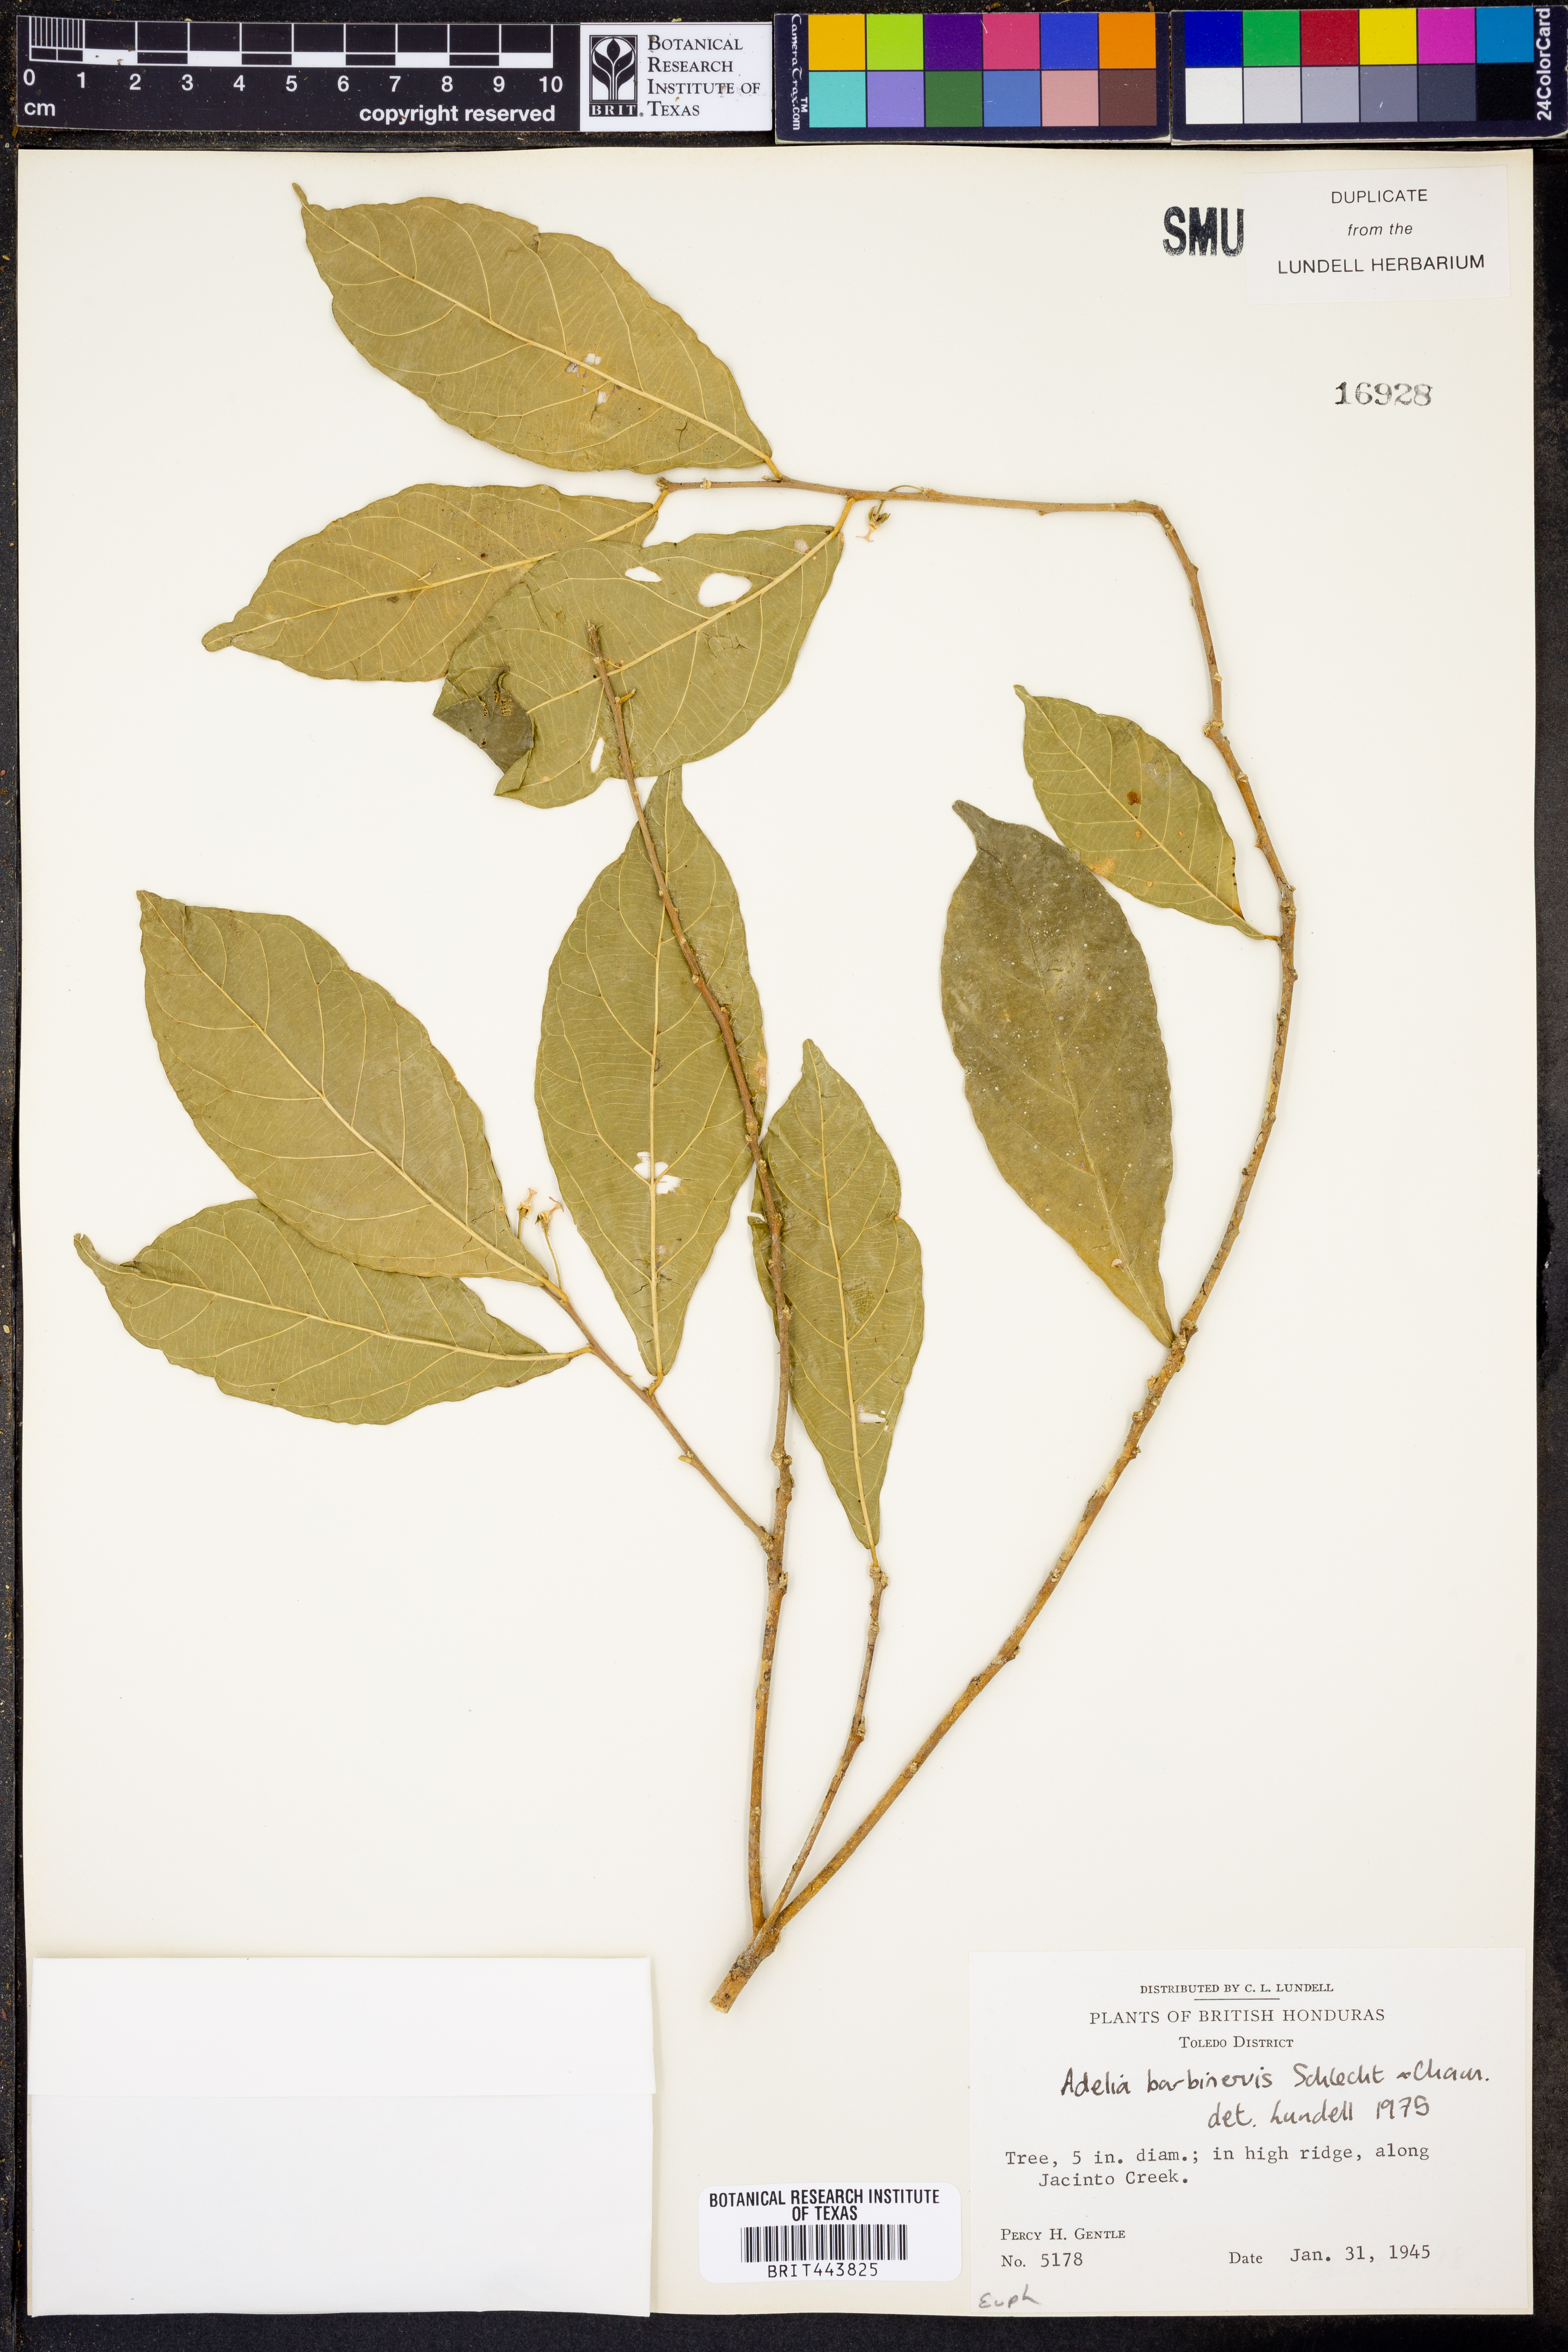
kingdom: Plantae
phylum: Tracheophyta
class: Magnoliopsida
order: Malpighiales
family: Euphorbiaceae
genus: Adelia
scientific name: Adelia barbinervis
